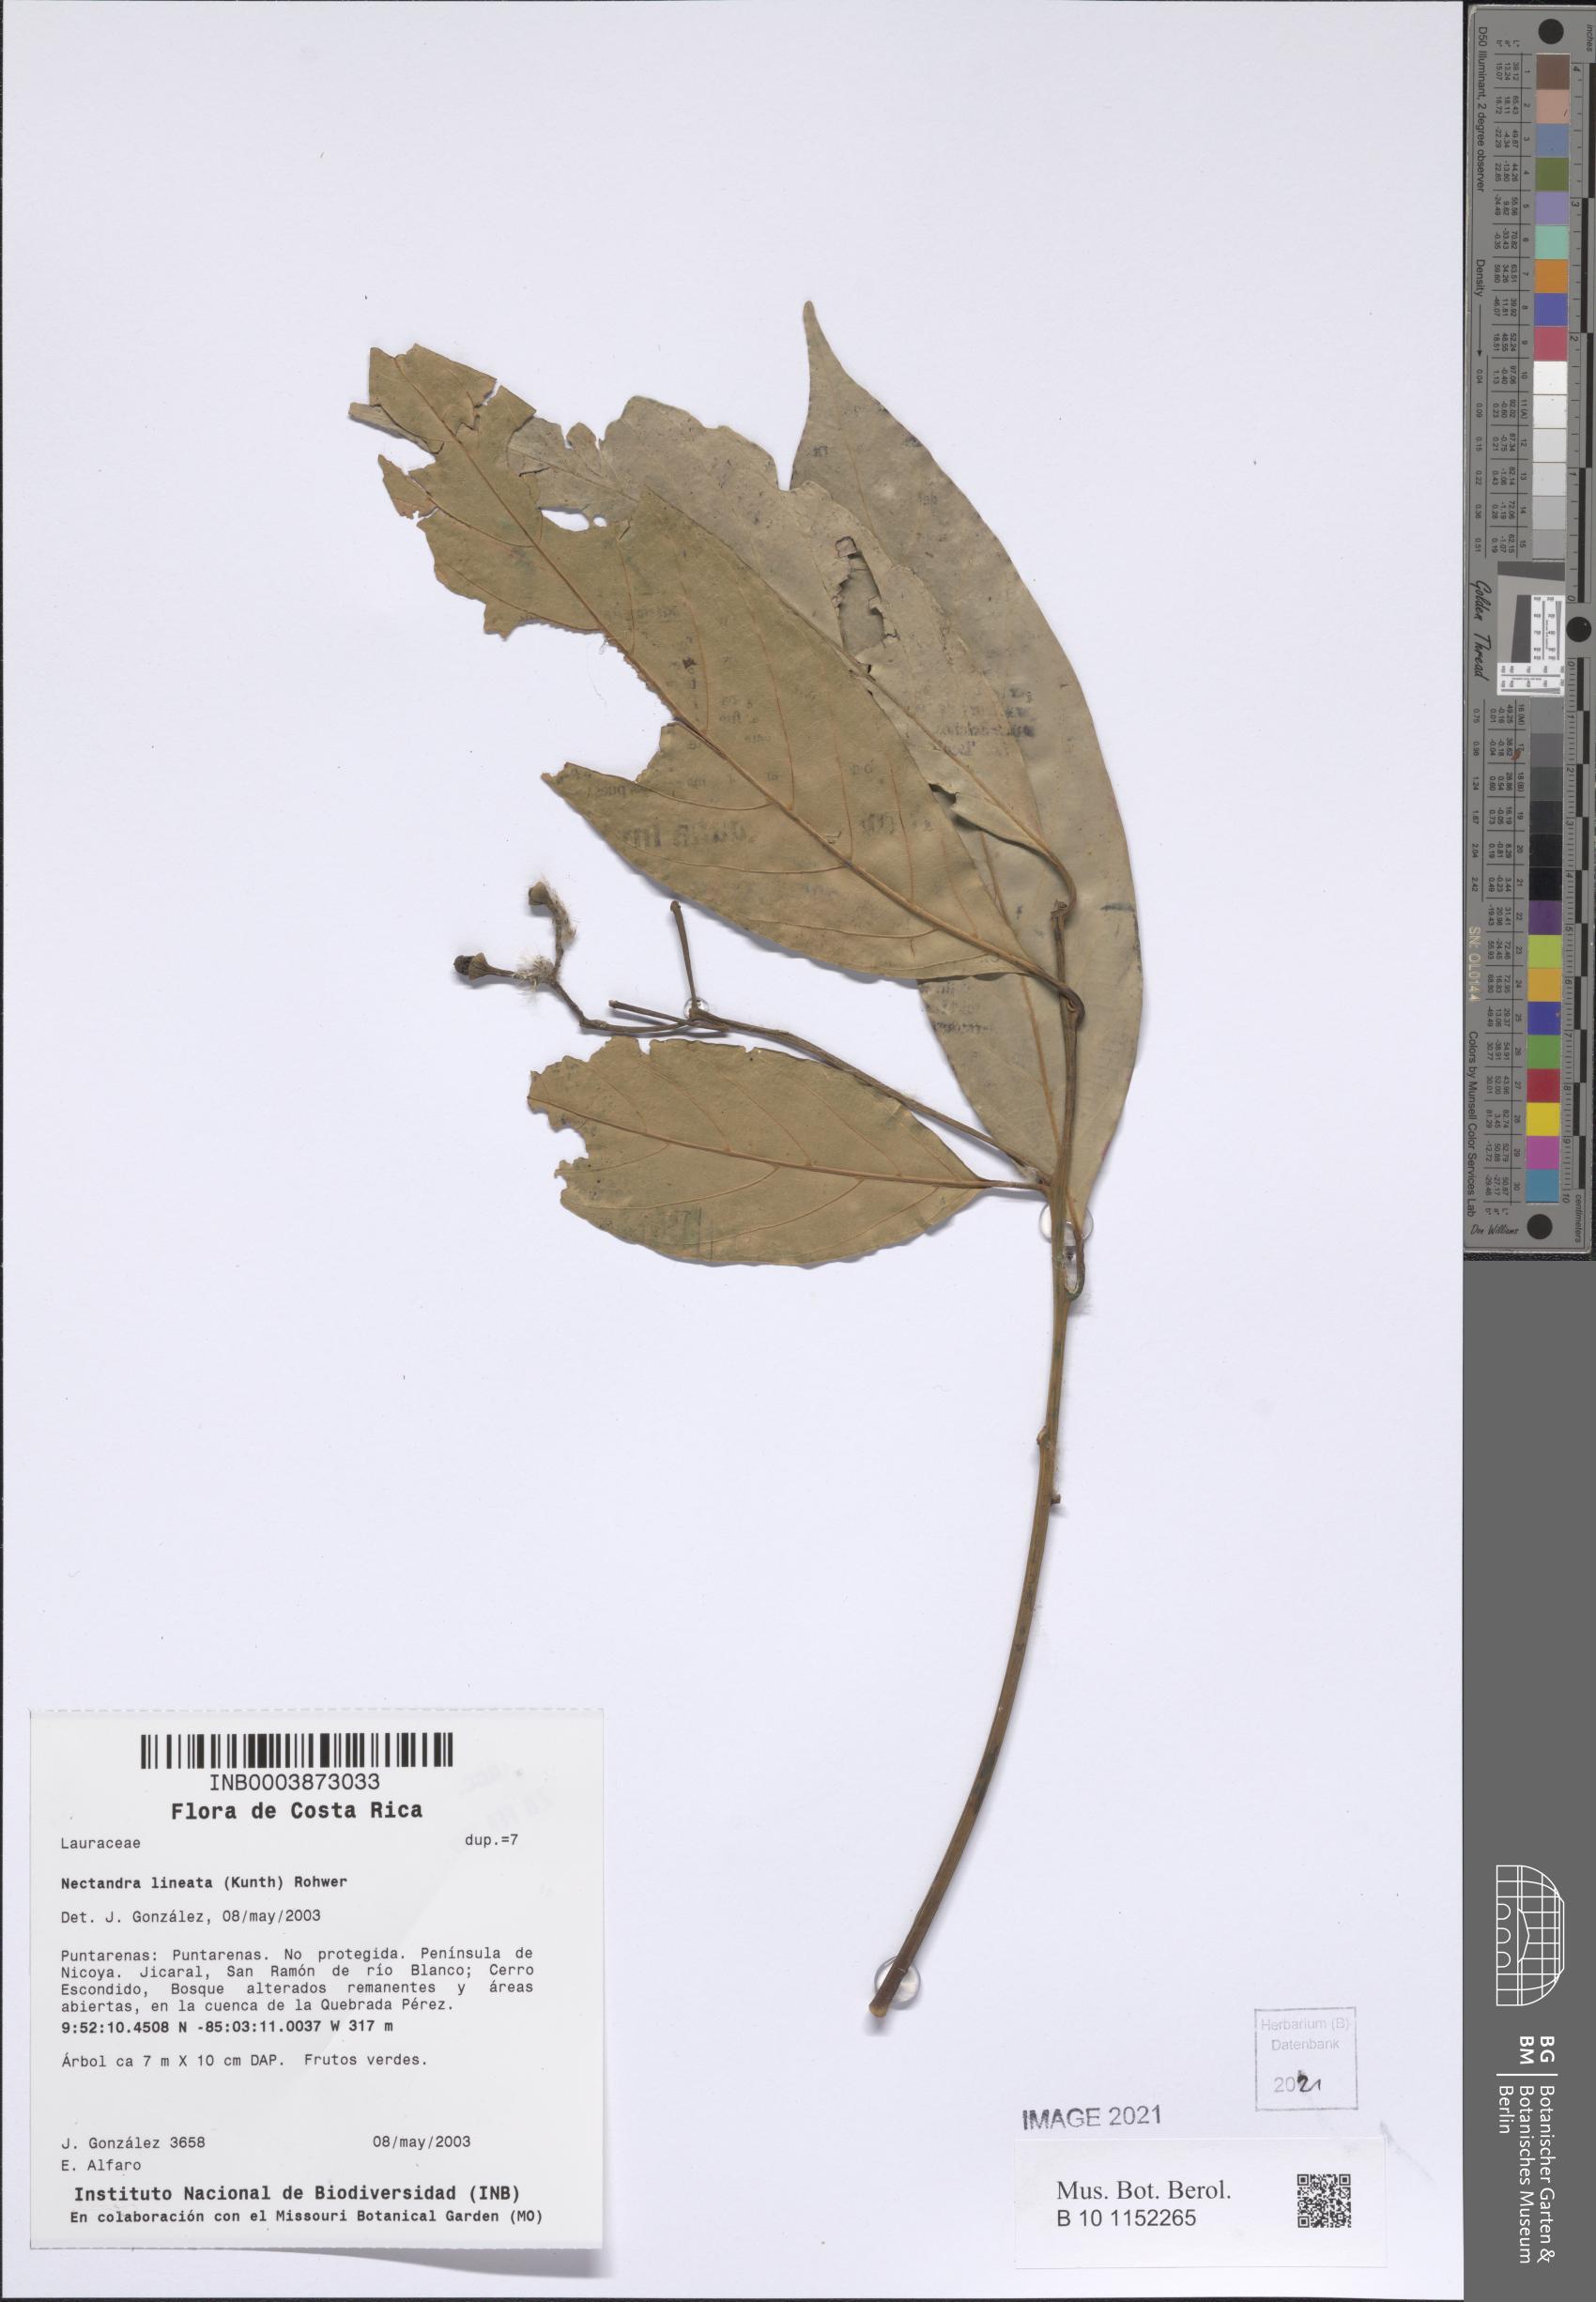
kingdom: Plantae
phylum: Tracheophyta
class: Magnoliopsida
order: Laurales
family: Lauraceae
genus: Nectandra
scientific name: Nectandra lineata
